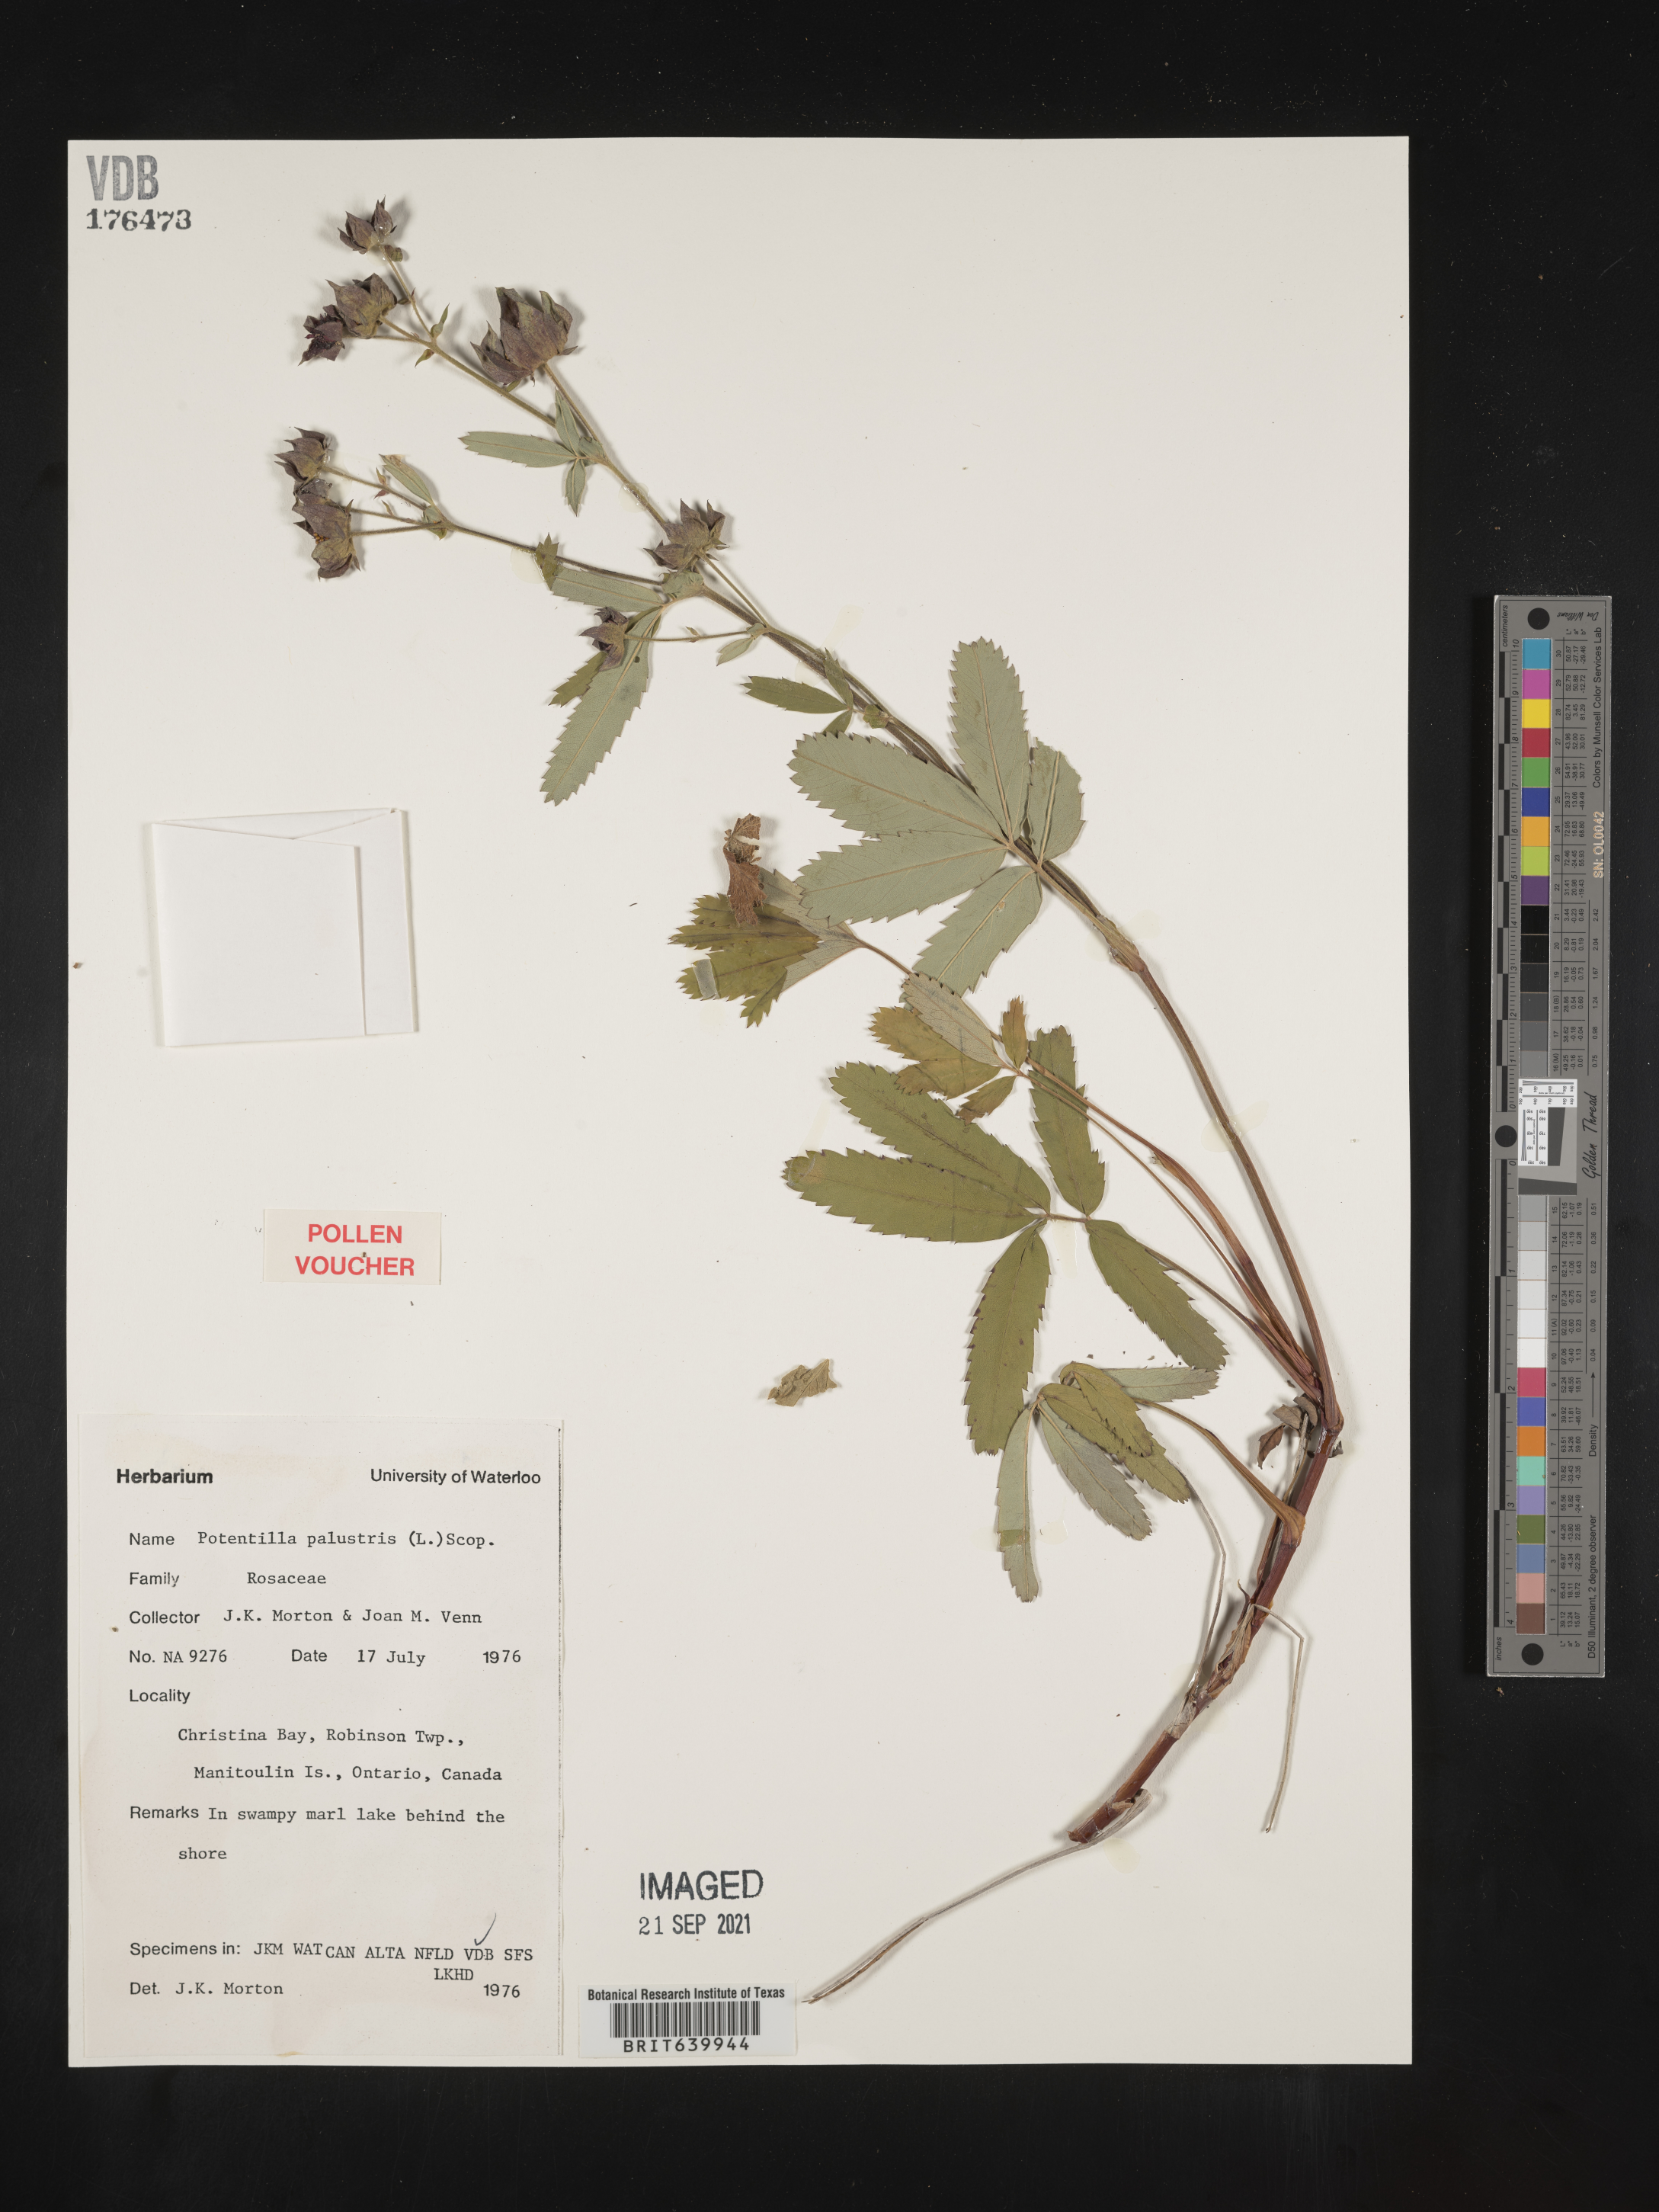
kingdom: Plantae
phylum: Tracheophyta
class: Magnoliopsida
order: Rosales
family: Rosaceae
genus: Potentilla
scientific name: Potentilla
